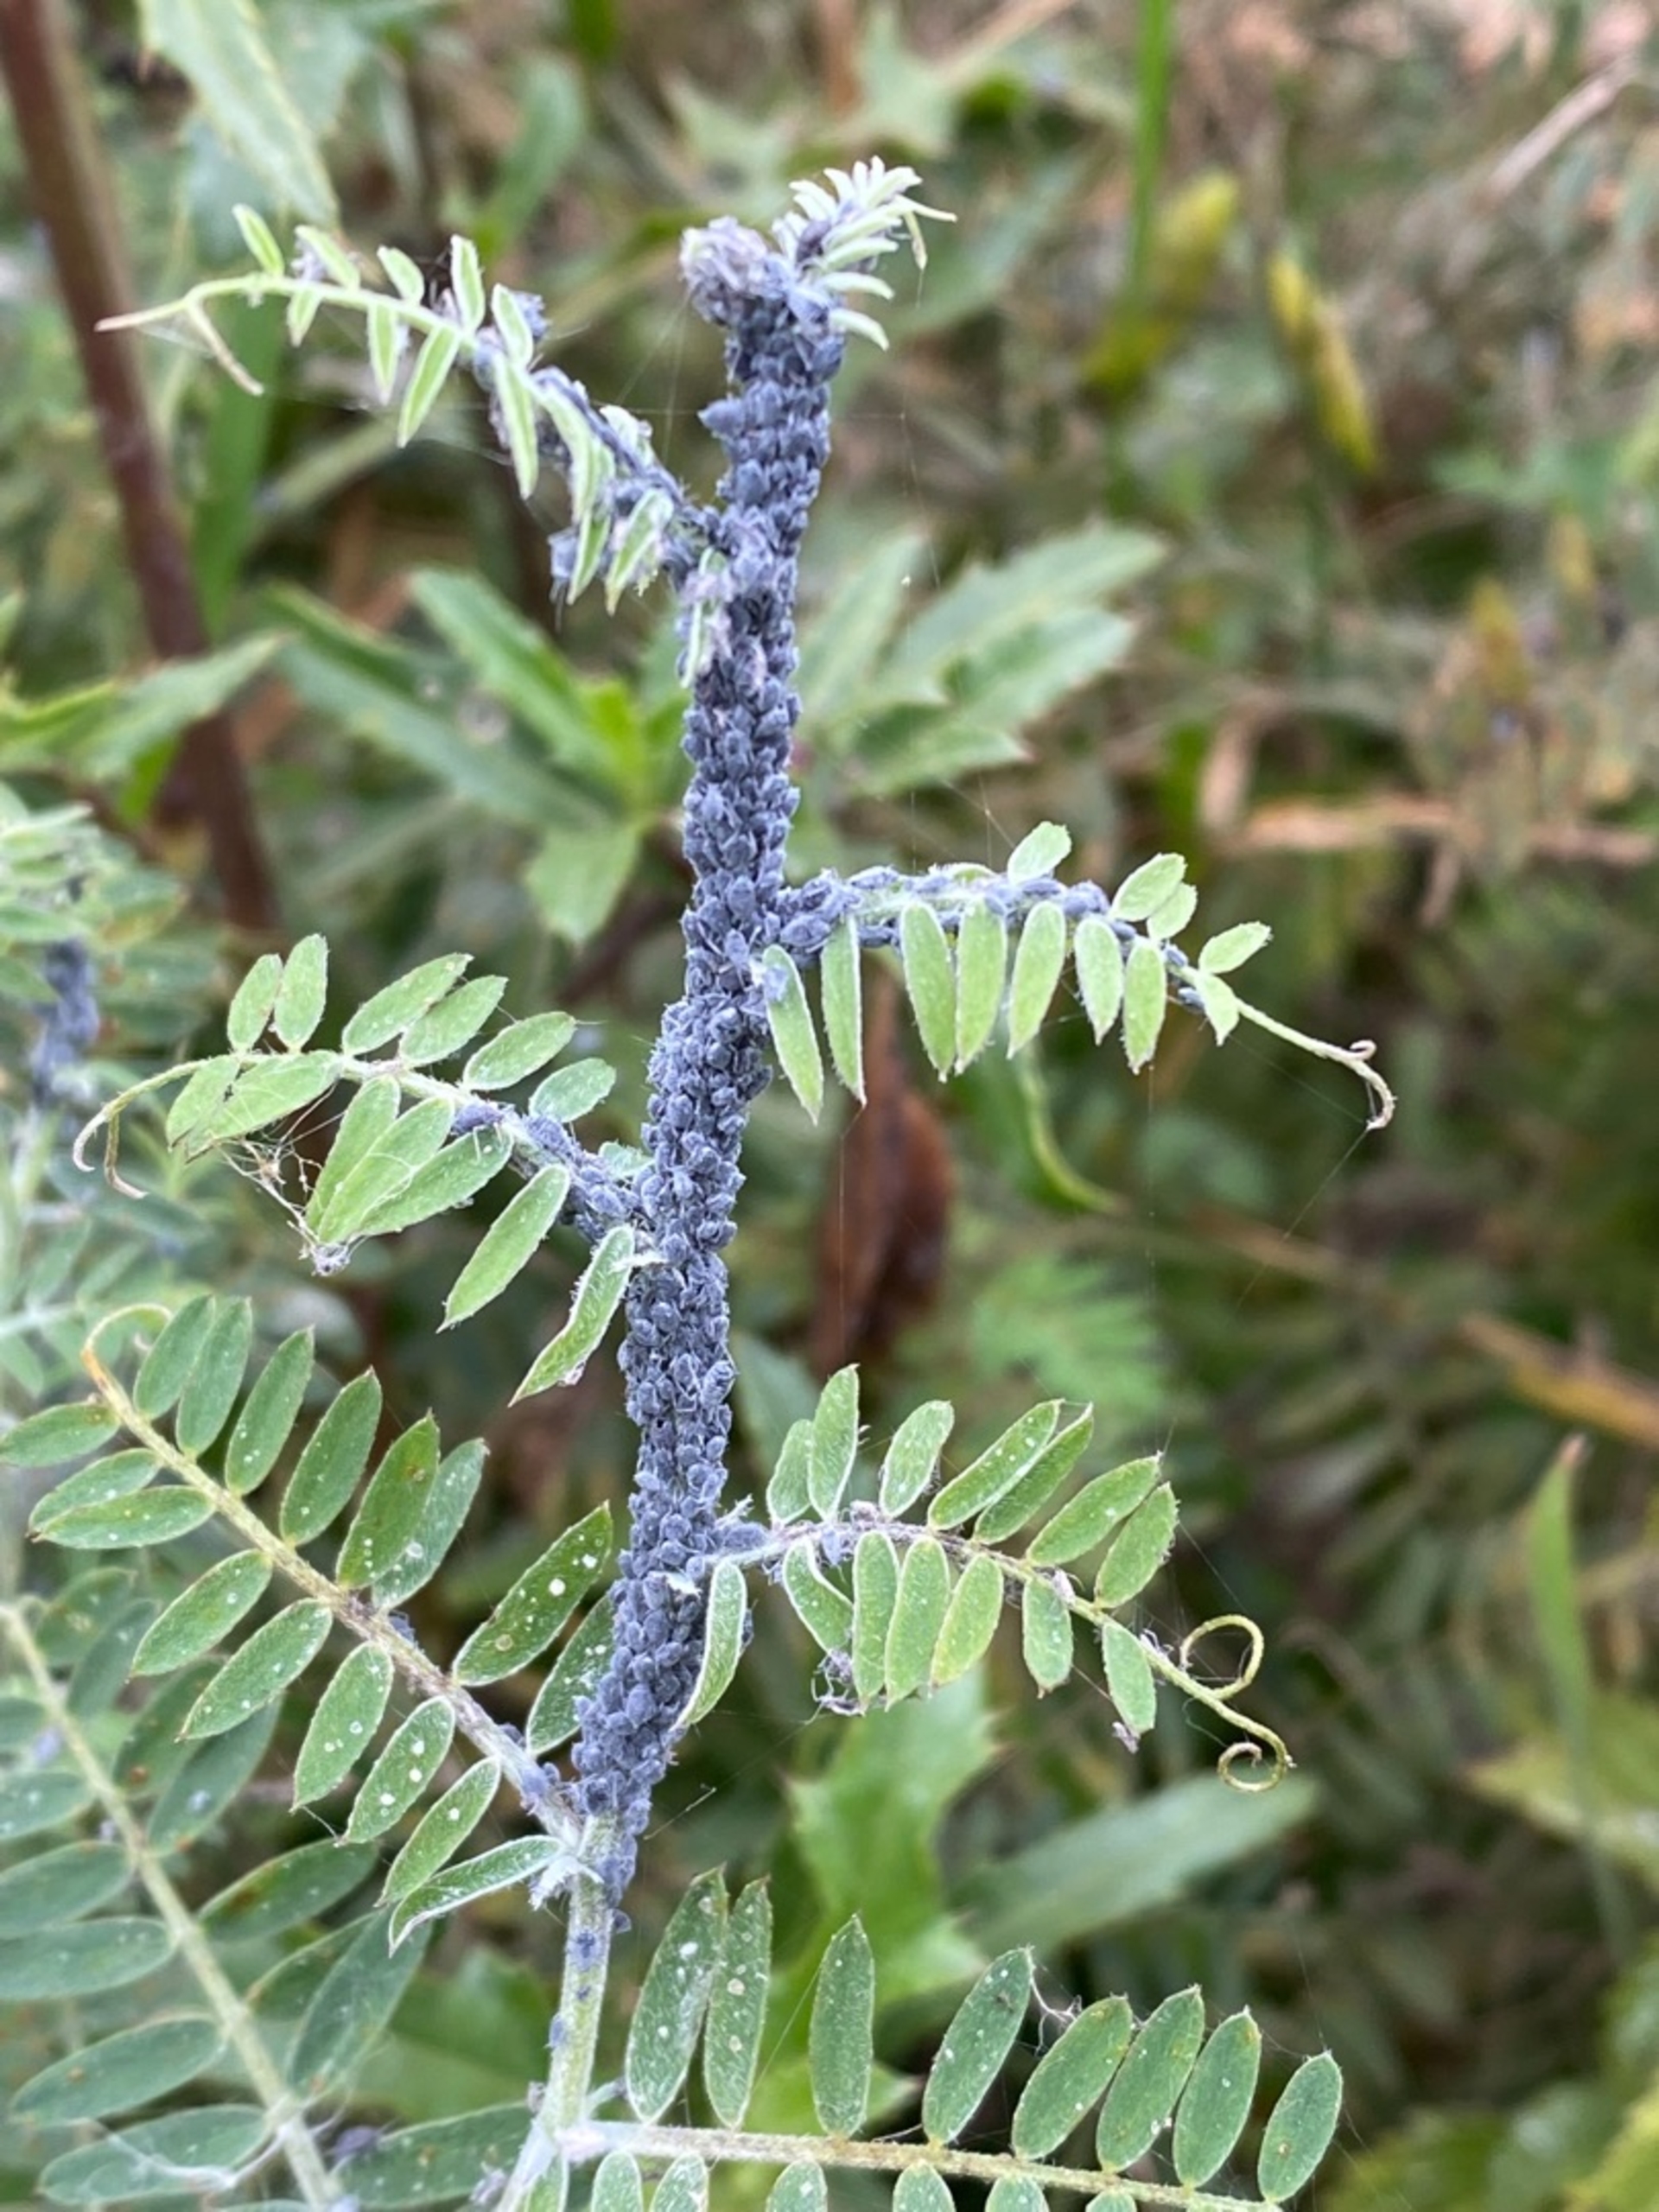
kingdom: Animalia
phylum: Arthropoda
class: Insecta
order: Hemiptera
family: Aphididae
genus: Aphis
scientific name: Aphis craccae
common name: Musevikkebladlus
